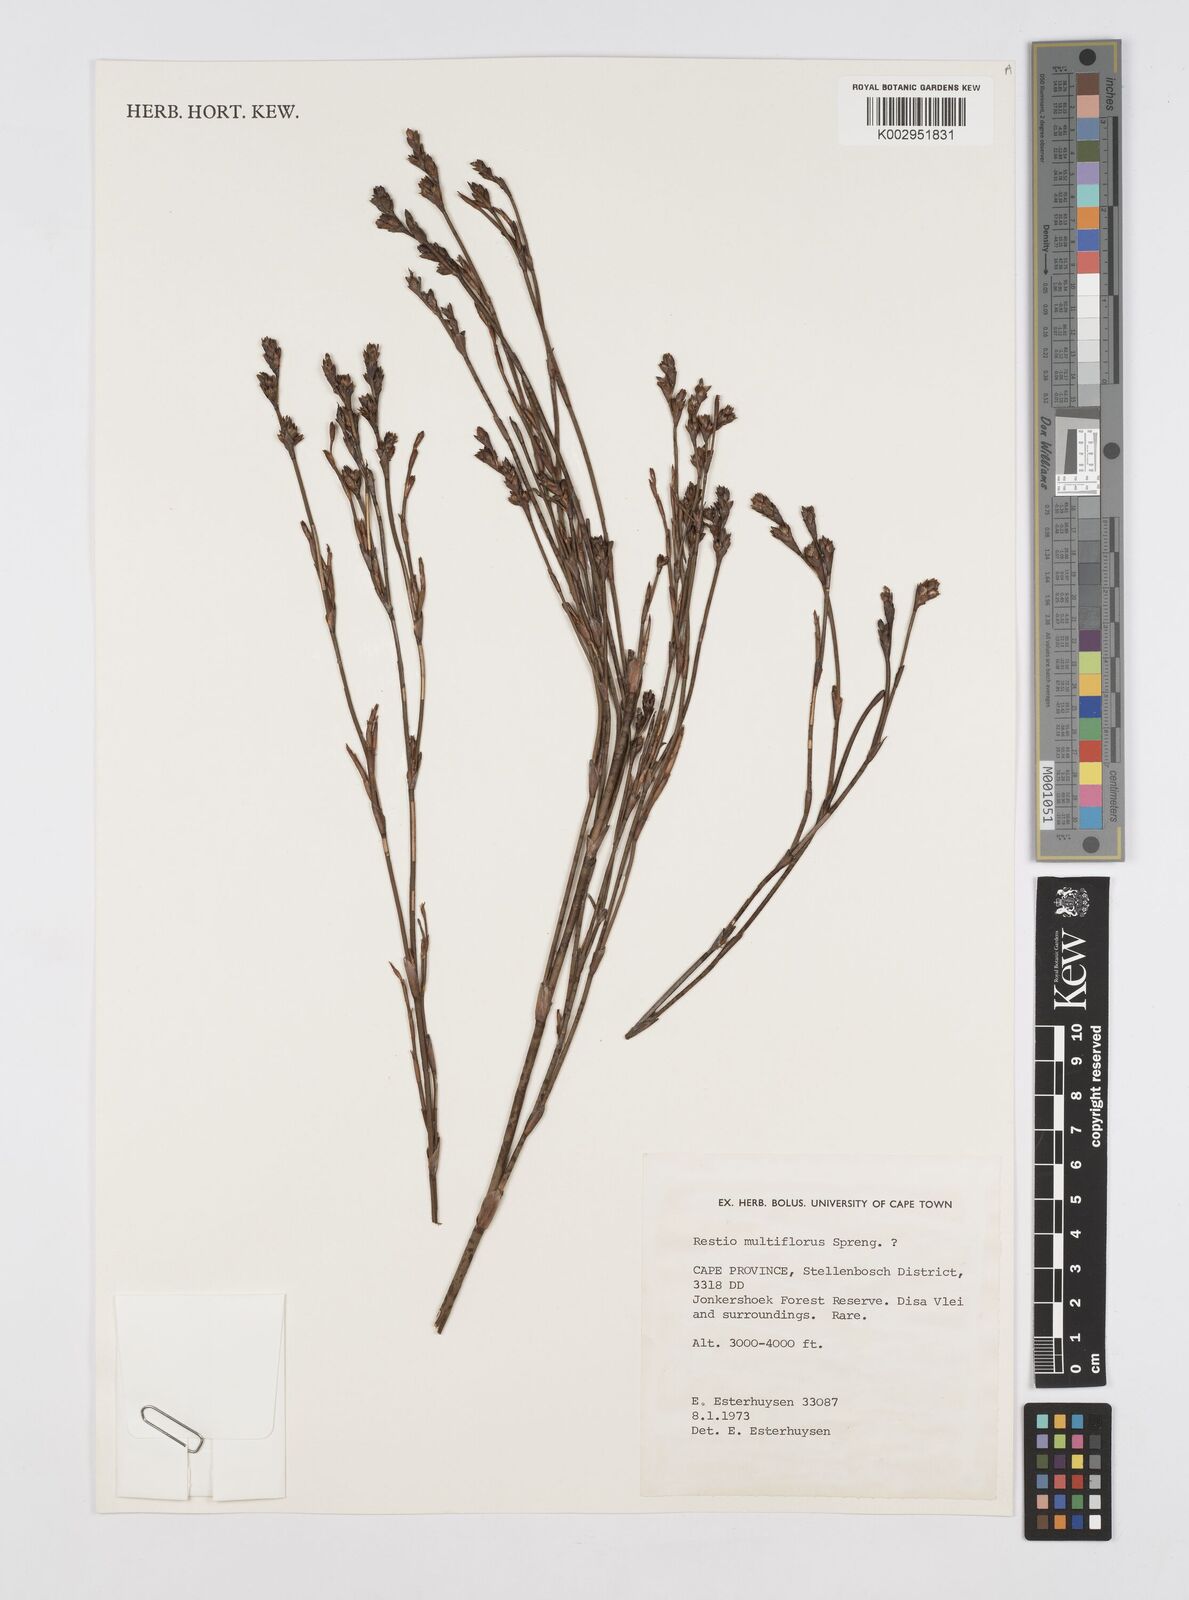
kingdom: Plantae
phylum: Tracheophyta
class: Liliopsida
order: Poales
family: Restionaceae
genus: Restio
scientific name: Restio
